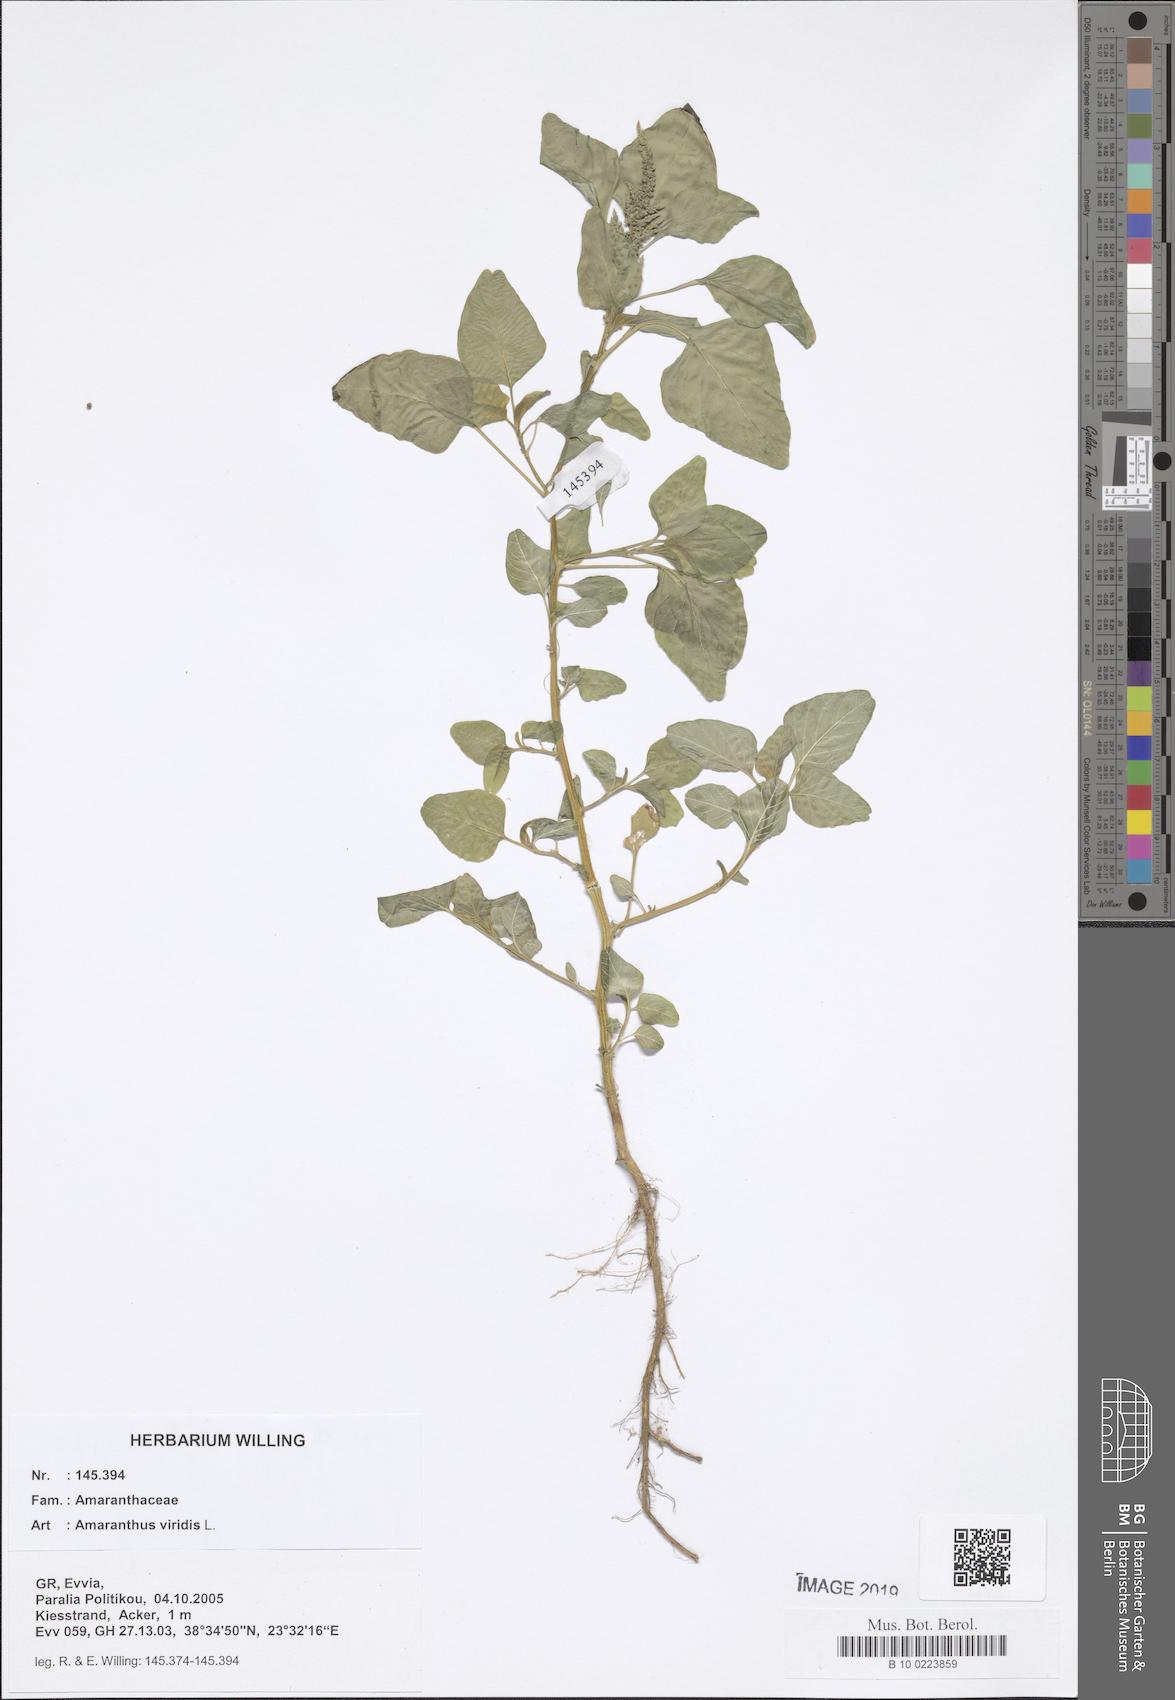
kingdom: Plantae
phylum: Tracheophyta
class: Magnoliopsida
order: Caryophyllales
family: Amaranthaceae
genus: Amaranthus
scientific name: Amaranthus viridis
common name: Slender amaranth
